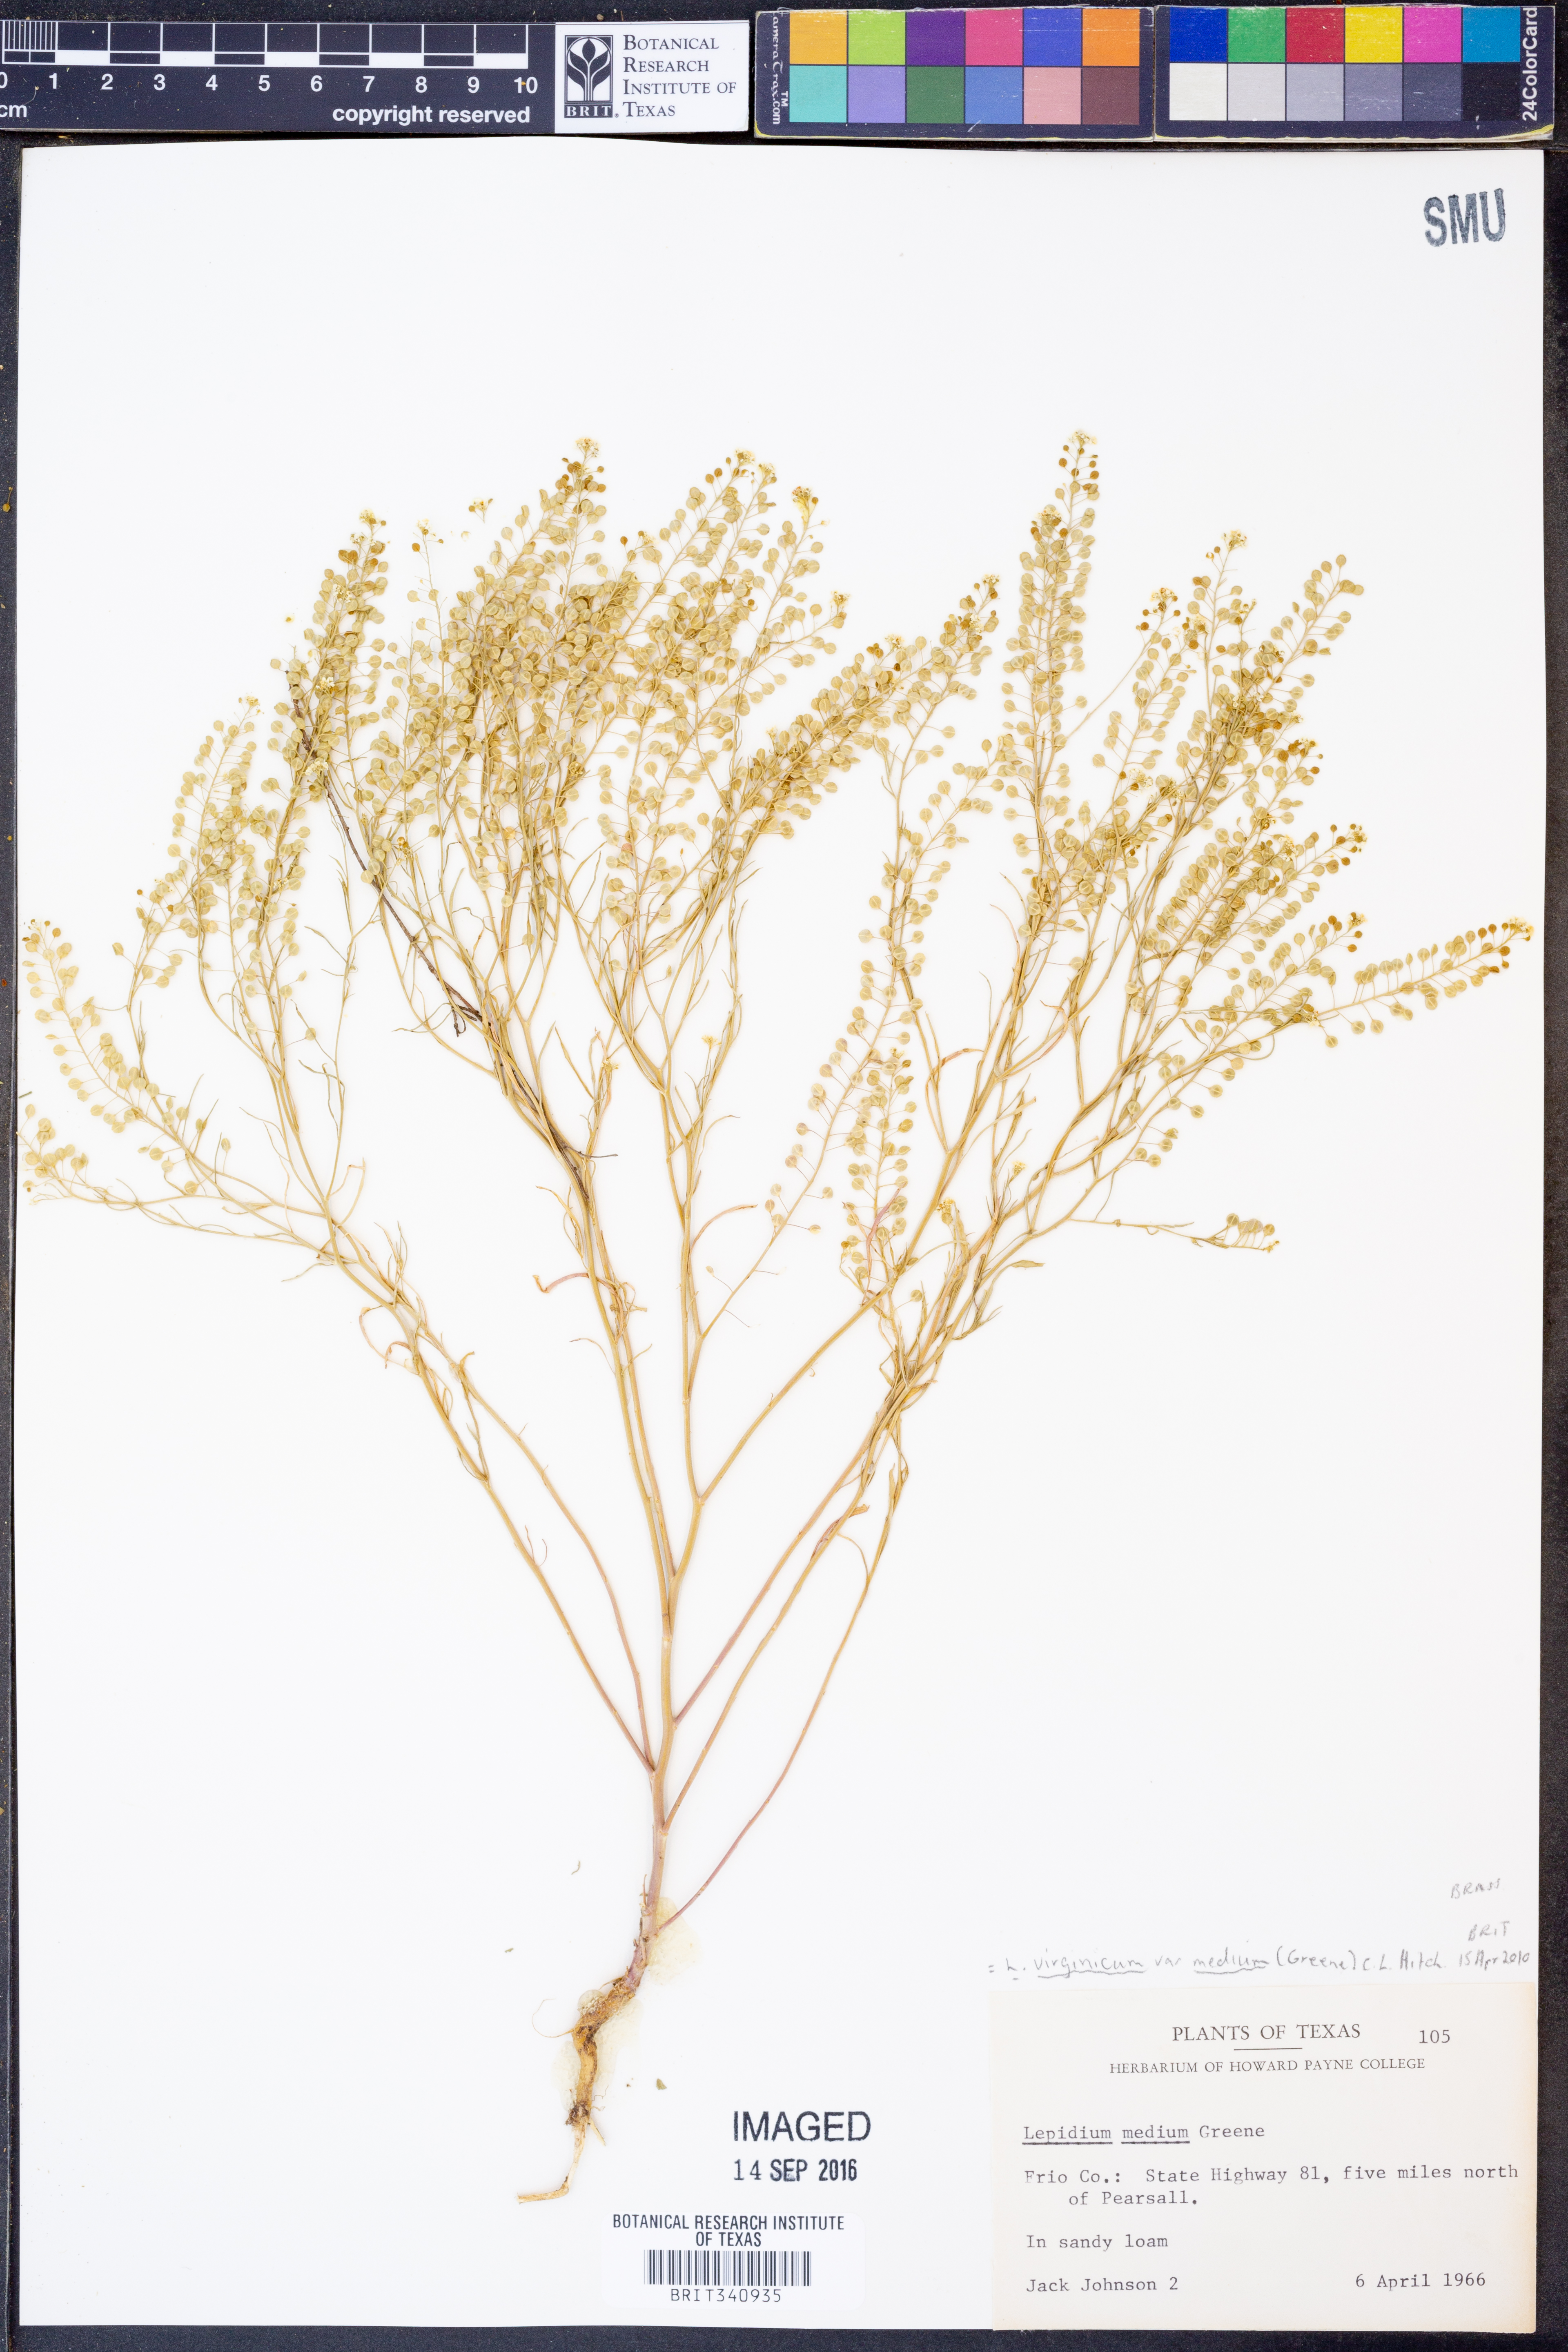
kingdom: Plantae
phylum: Tracheophyta
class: Magnoliopsida
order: Brassicales
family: Brassicaceae
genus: Lepidium
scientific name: Lepidium virginicum
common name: Least pepperwort
